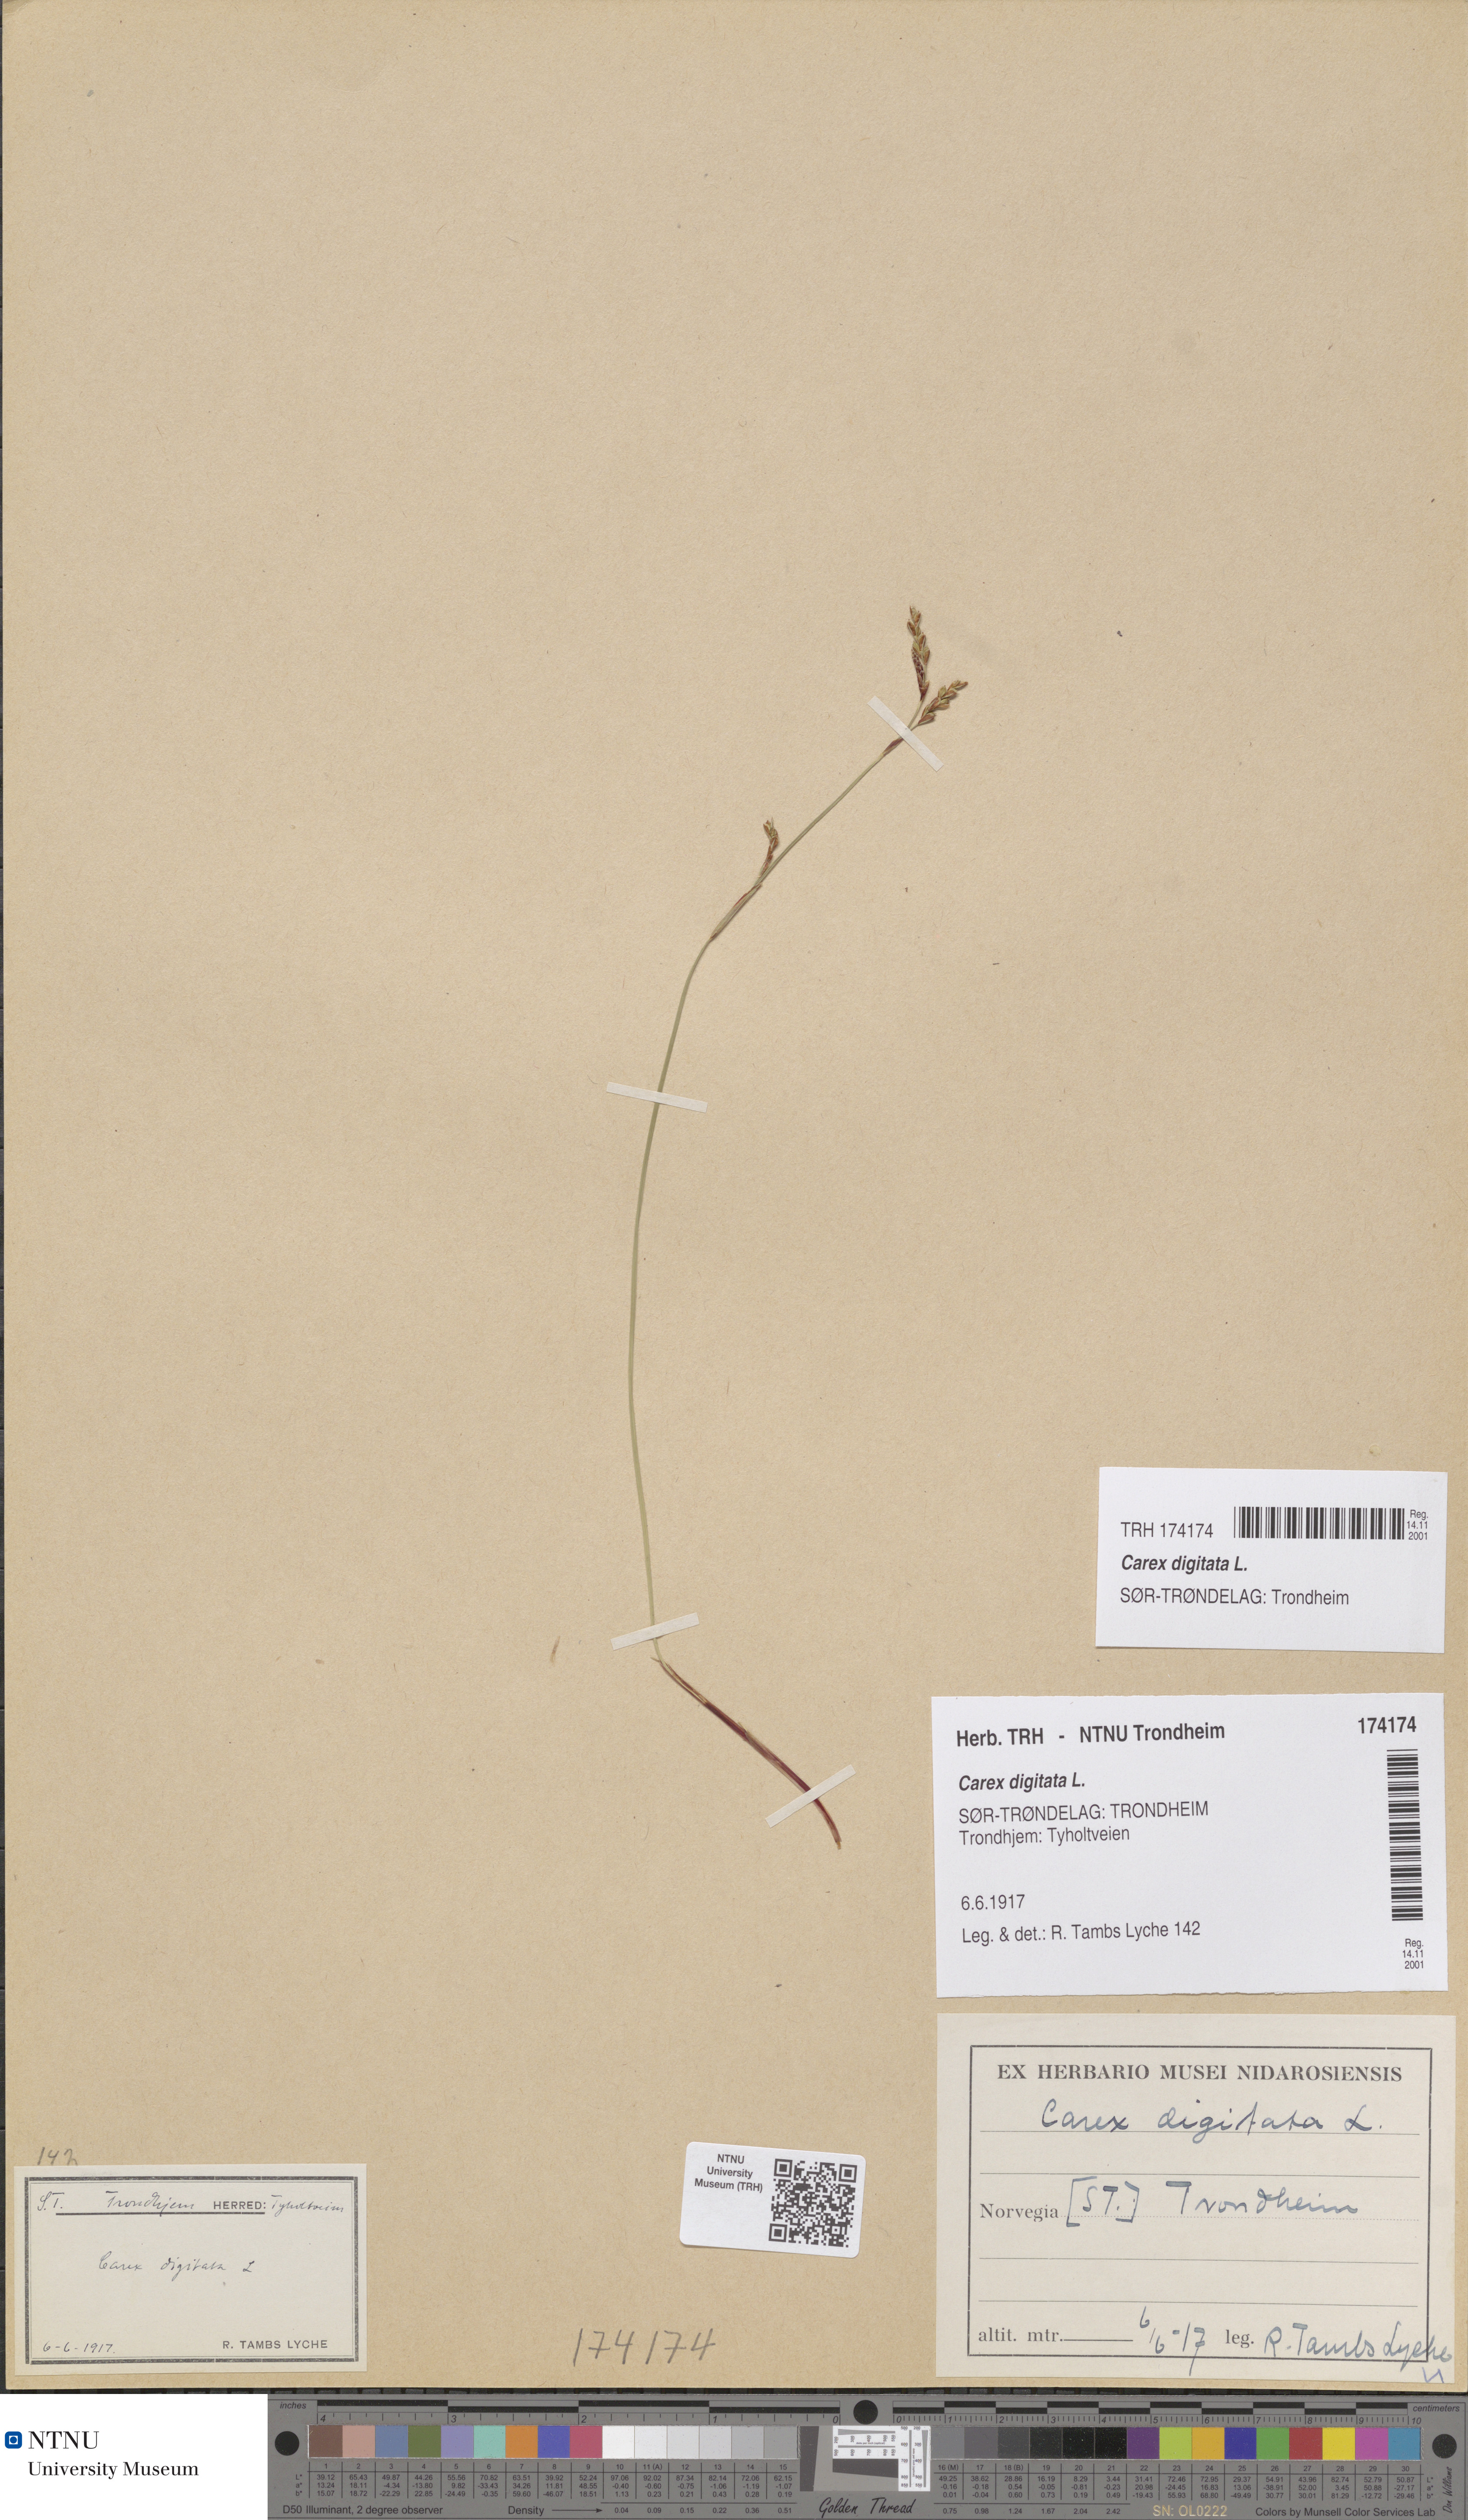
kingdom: Plantae
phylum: Tracheophyta
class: Liliopsida
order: Poales
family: Cyperaceae
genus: Carex
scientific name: Carex digitata
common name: Fingered sedge
